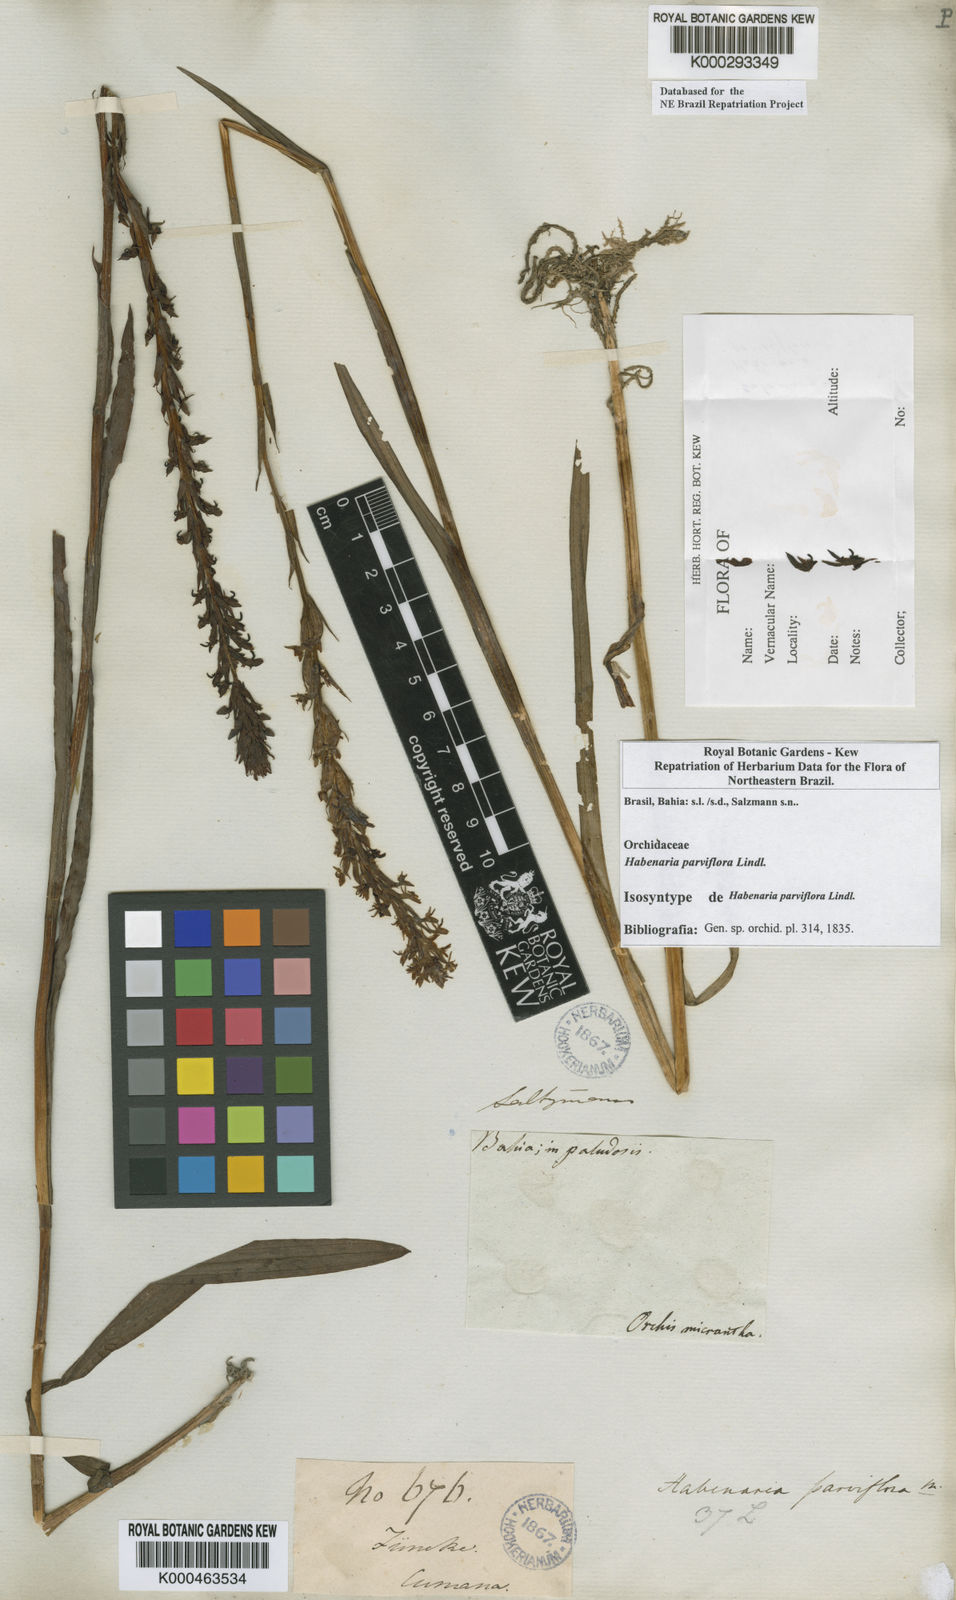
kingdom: Plantae
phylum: Tracheophyta
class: Liliopsida
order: Asparagales
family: Orchidaceae
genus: Habenaria
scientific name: Habenaria parviflora
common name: Small flowered habenaria
